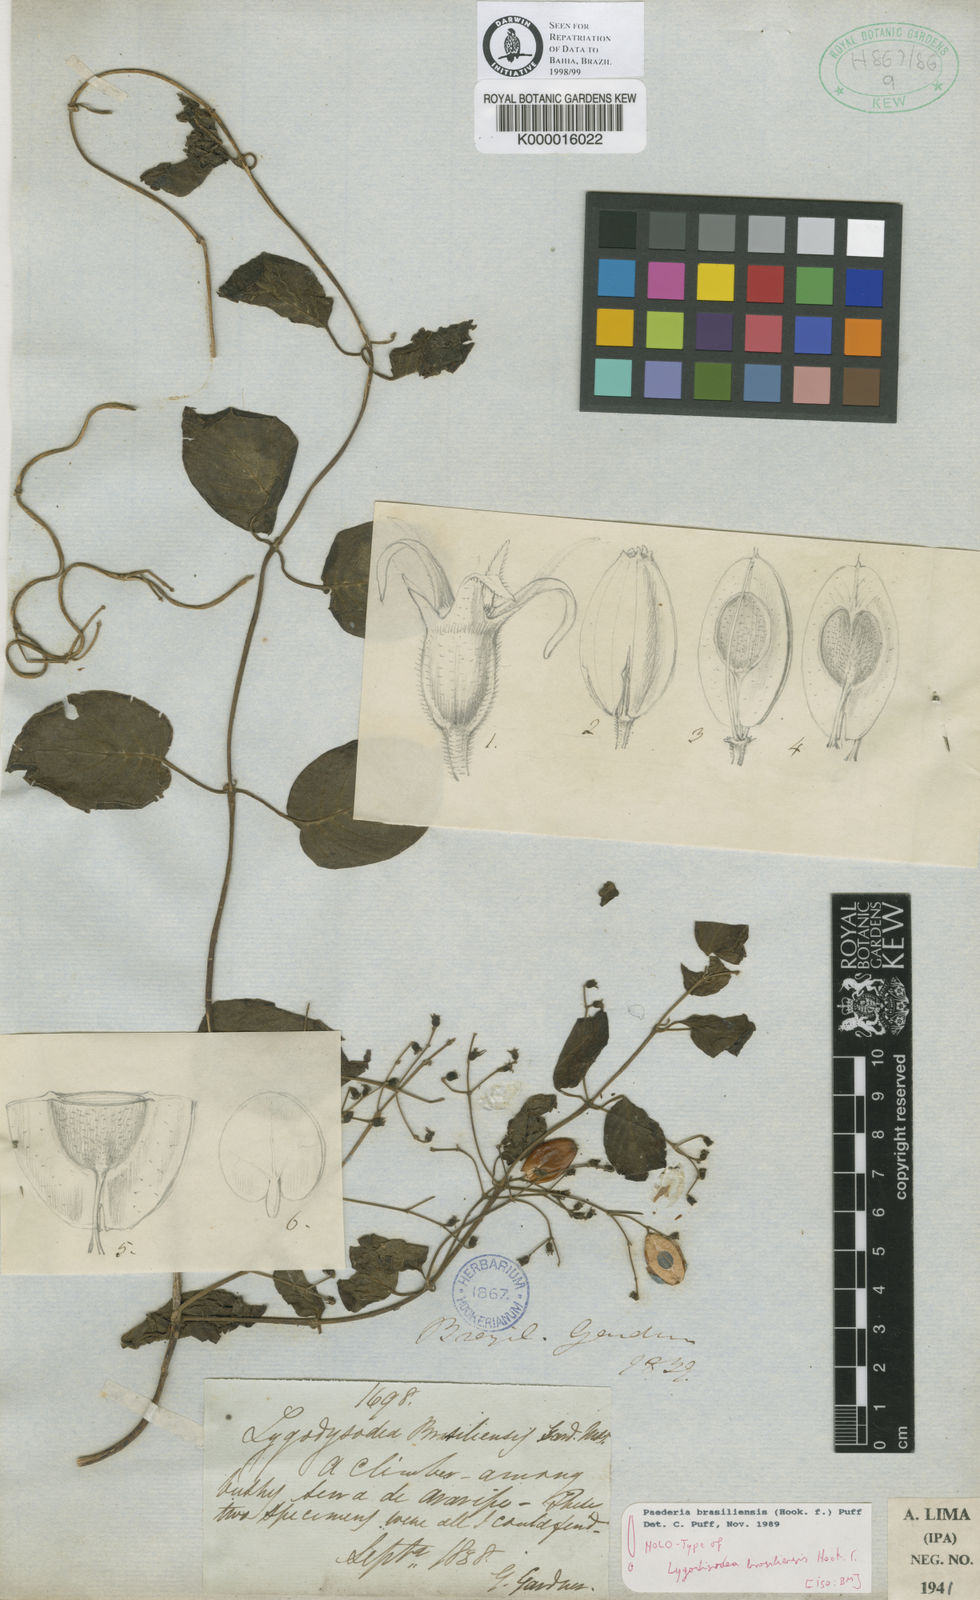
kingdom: Plantae
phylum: Tracheophyta
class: Magnoliopsida
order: Gentianales
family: Rubiaceae
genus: Paederia
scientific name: Paederia brasiliensis
